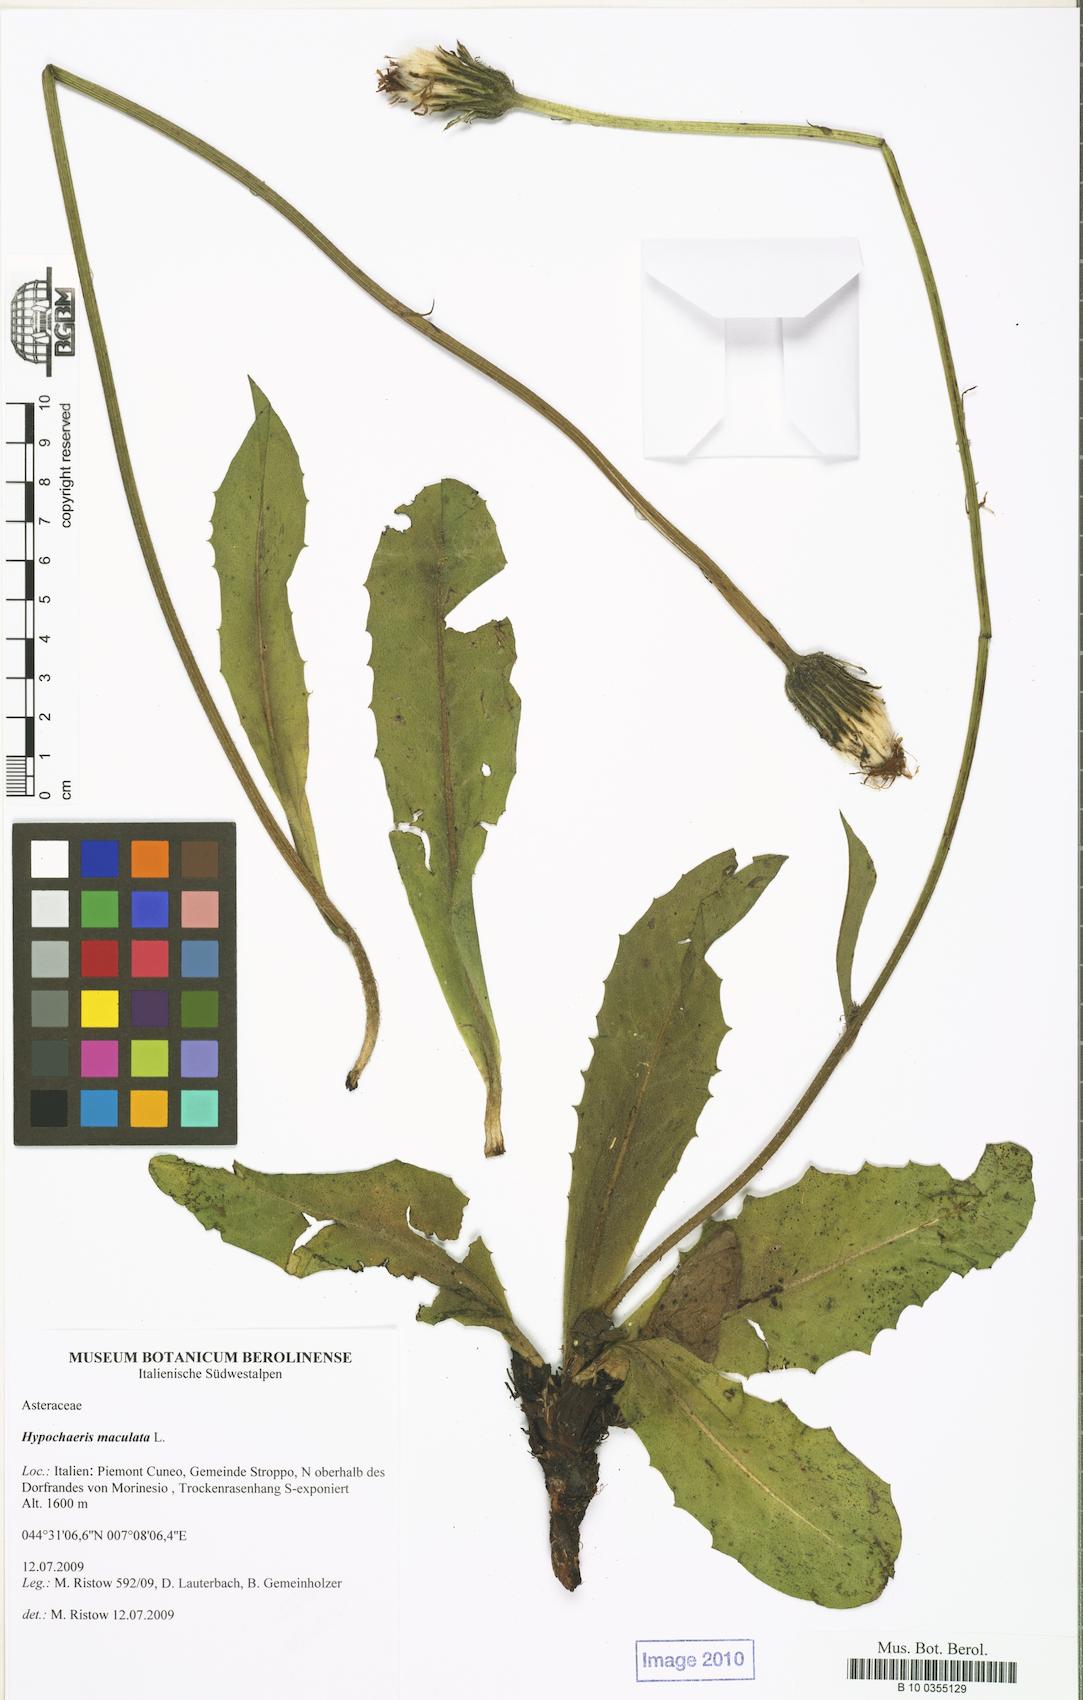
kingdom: Plantae
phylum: Tracheophyta
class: Magnoliopsida
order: Asterales
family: Asteraceae
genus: Trommsdorffia
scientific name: Trommsdorffia maculata
